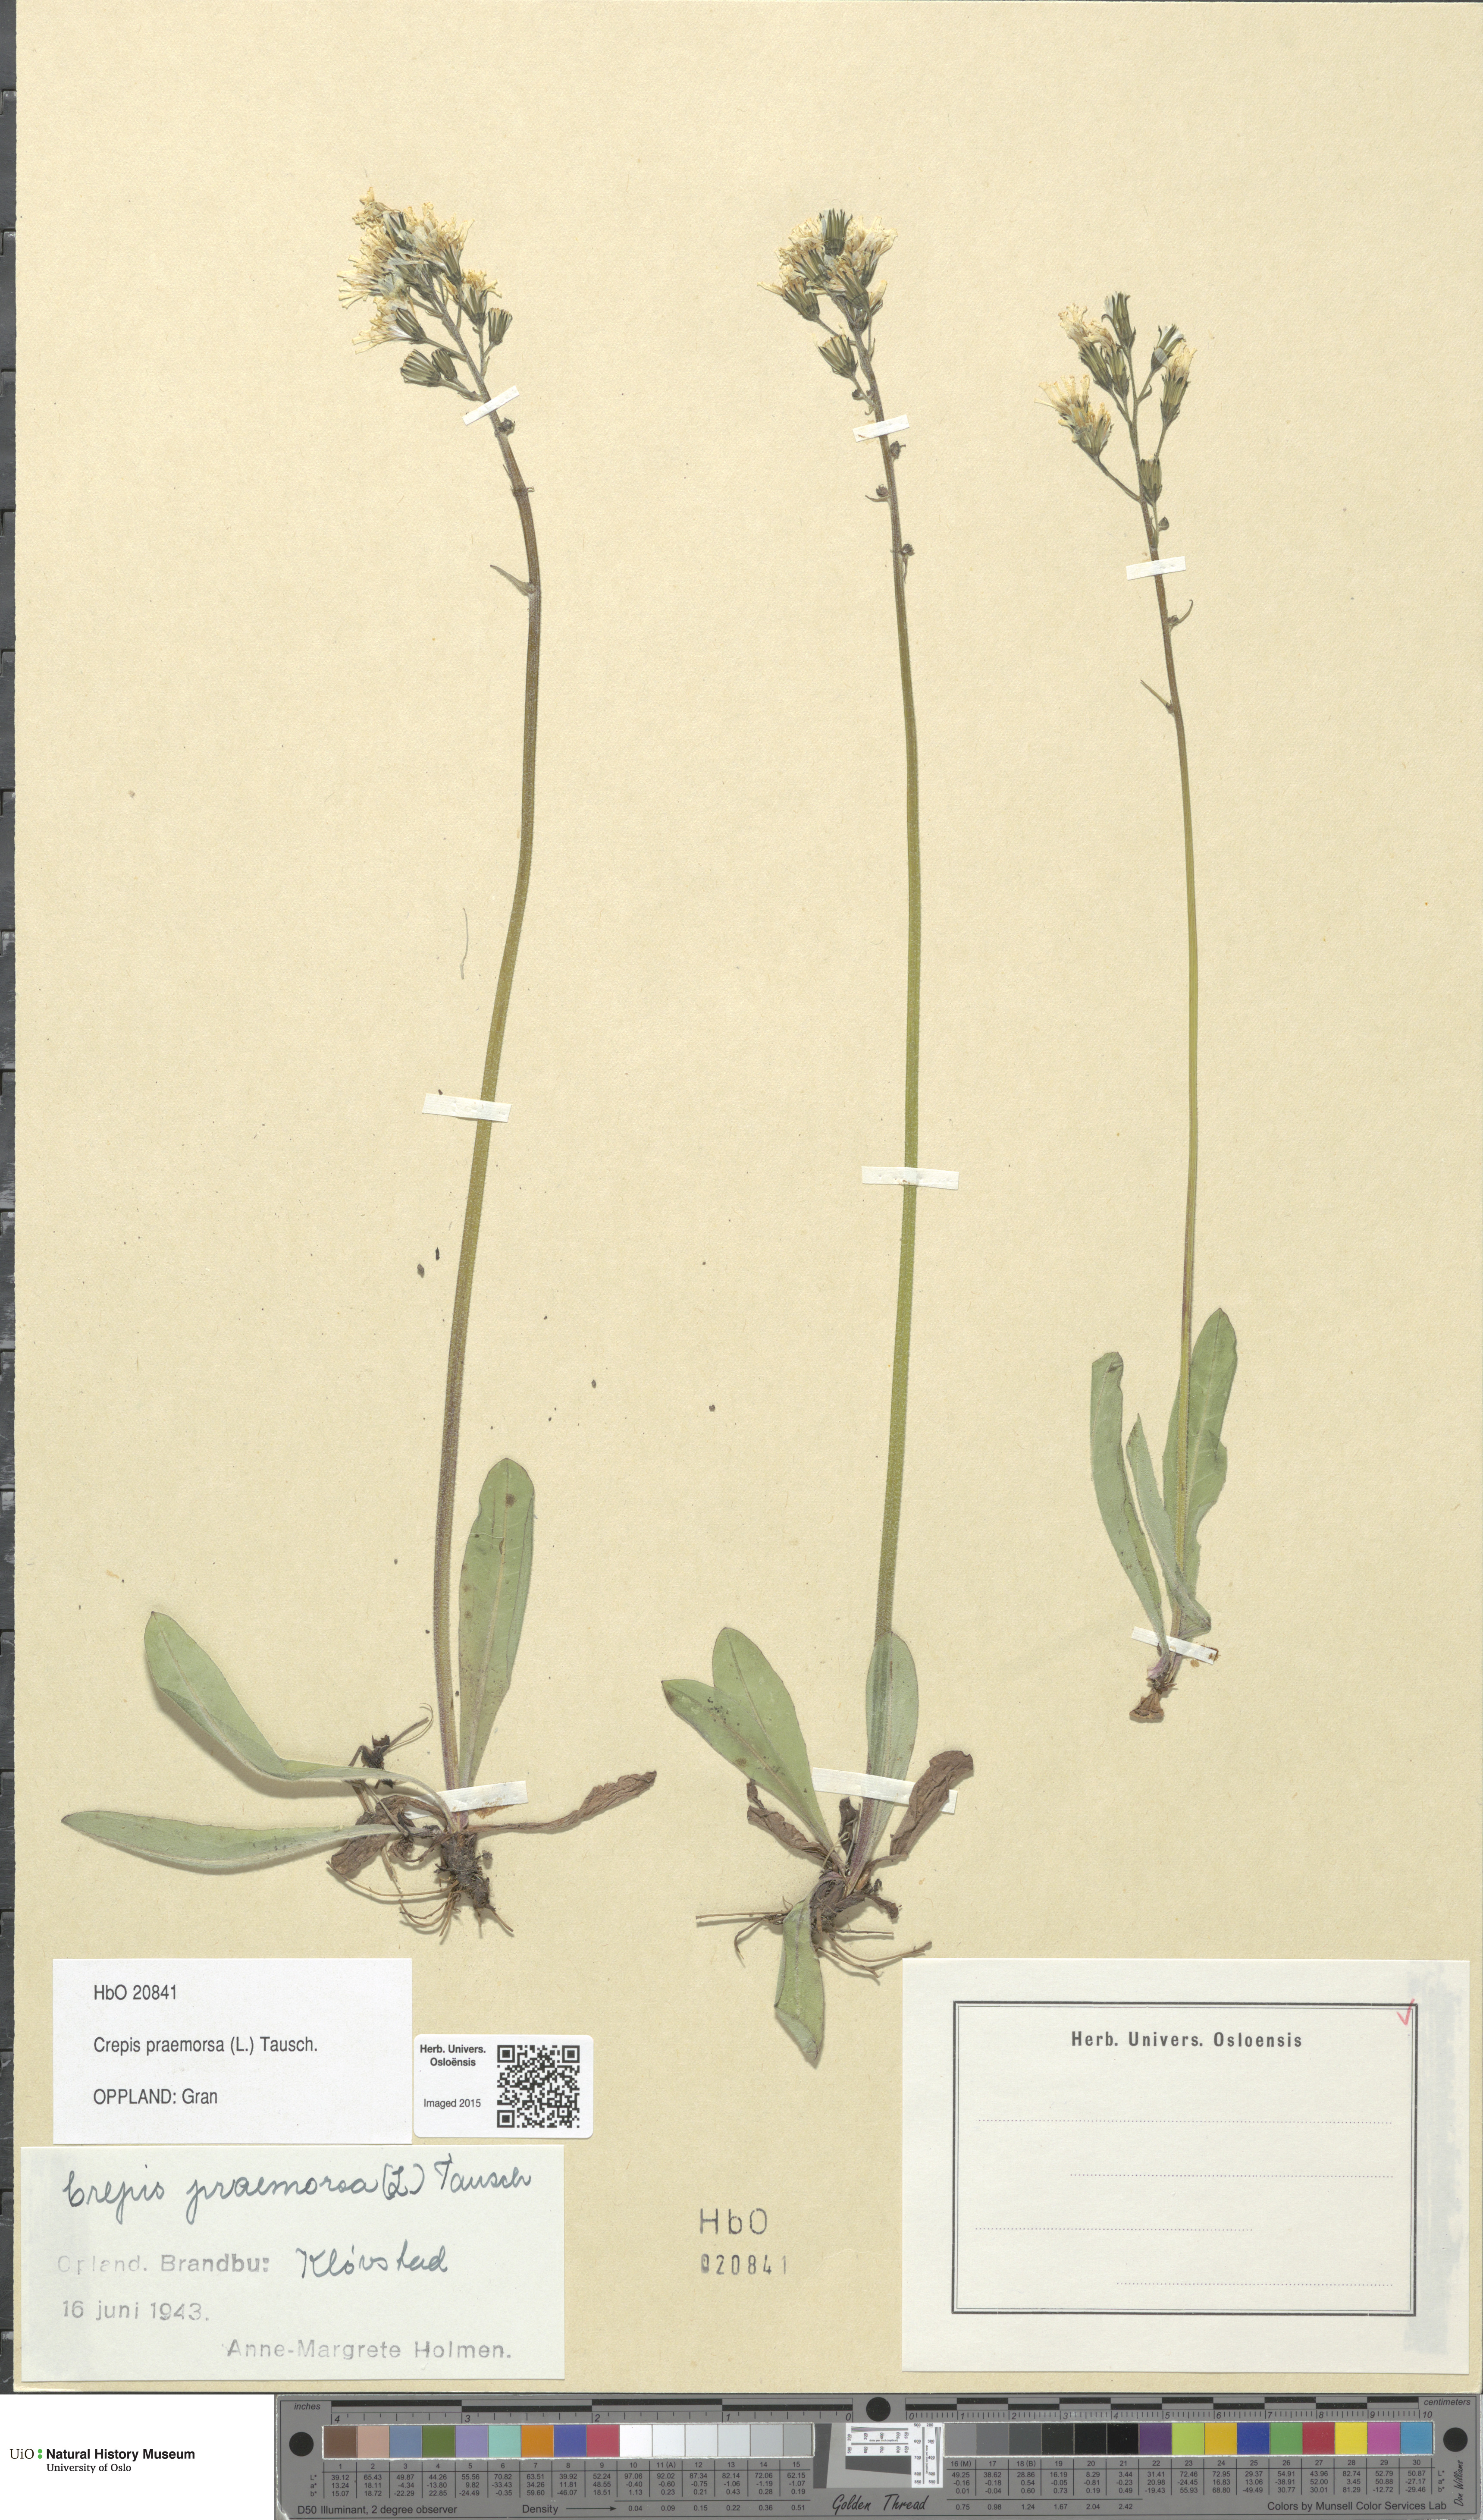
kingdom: Plantae
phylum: Tracheophyta
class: Magnoliopsida
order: Asterales
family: Asteraceae
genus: Crepis
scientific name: Crepis praemorsa
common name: Leafless hawk's-beard
